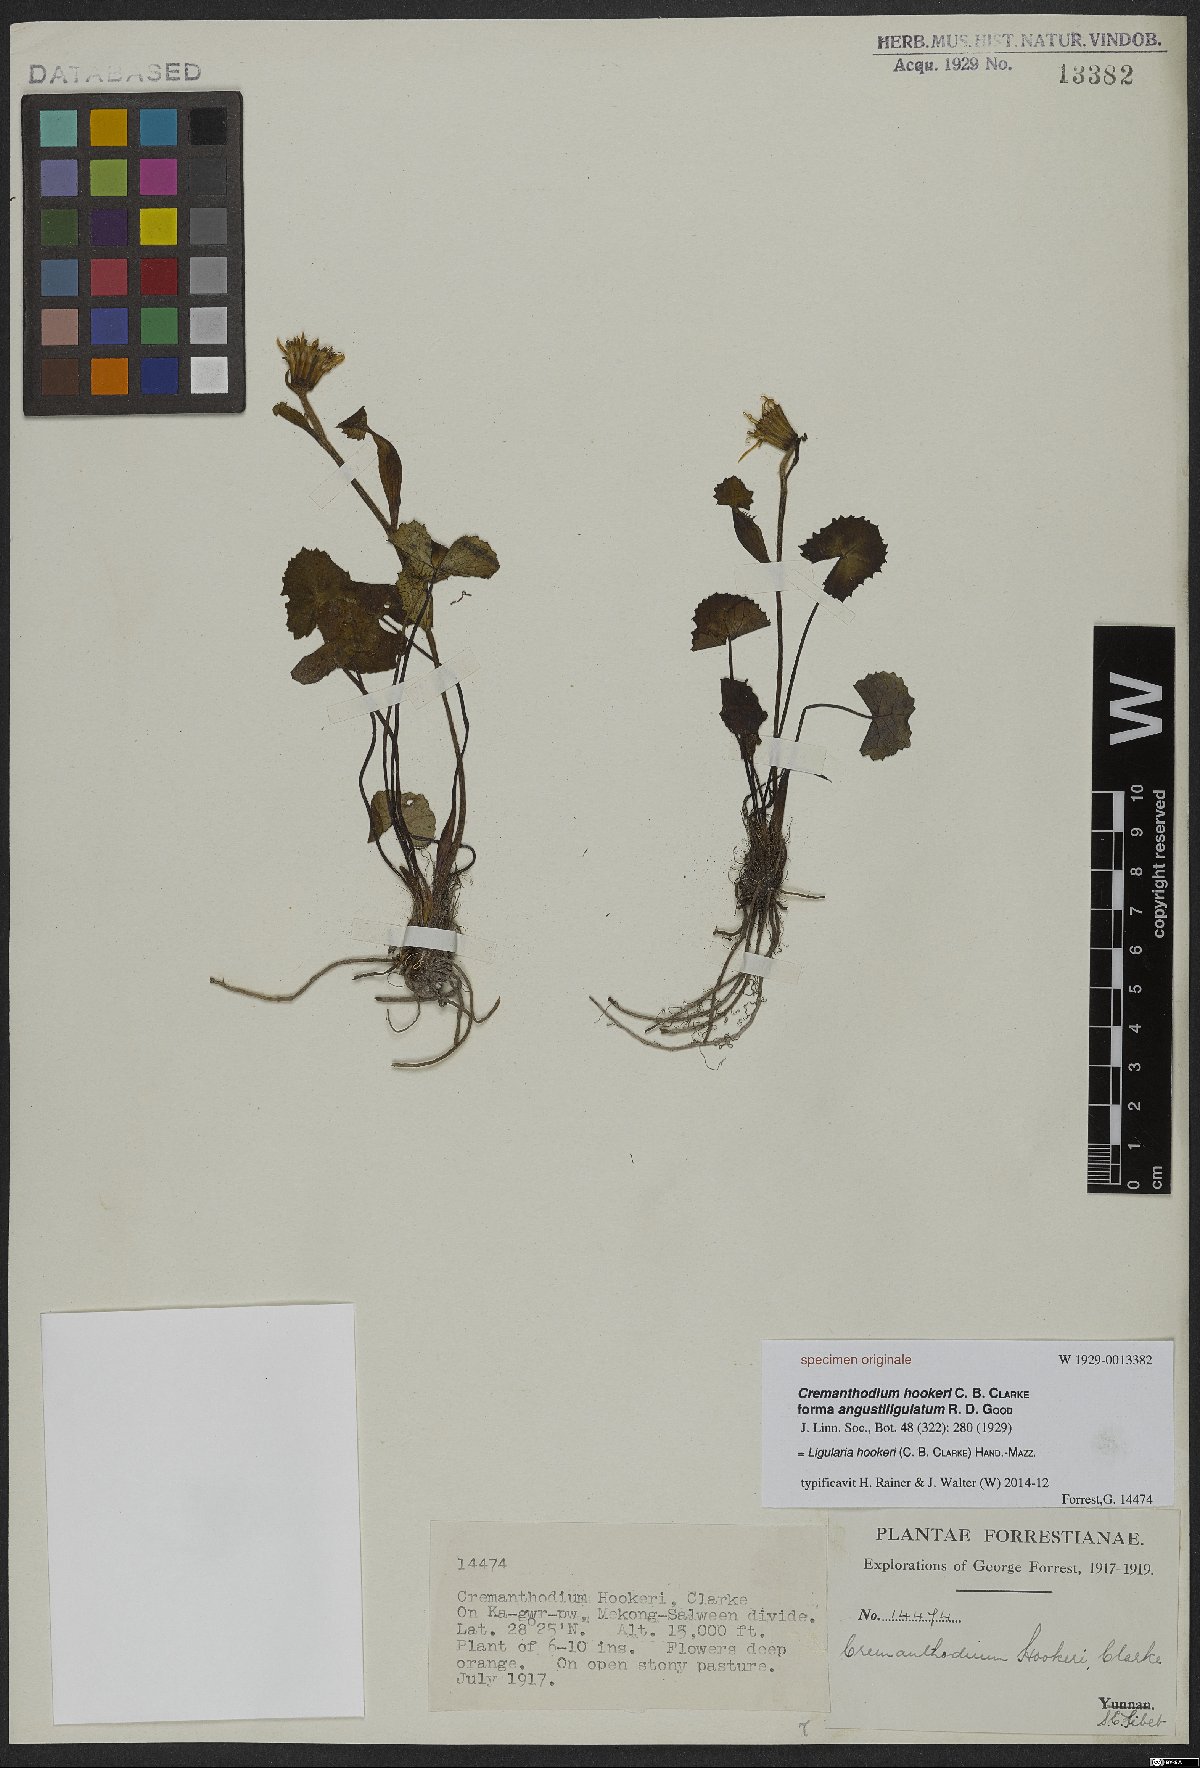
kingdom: Plantae
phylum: Tracheophyta
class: Magnoliopsida
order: Asterales
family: Asteraceae
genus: Ligularia
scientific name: Ligularia hookeri
